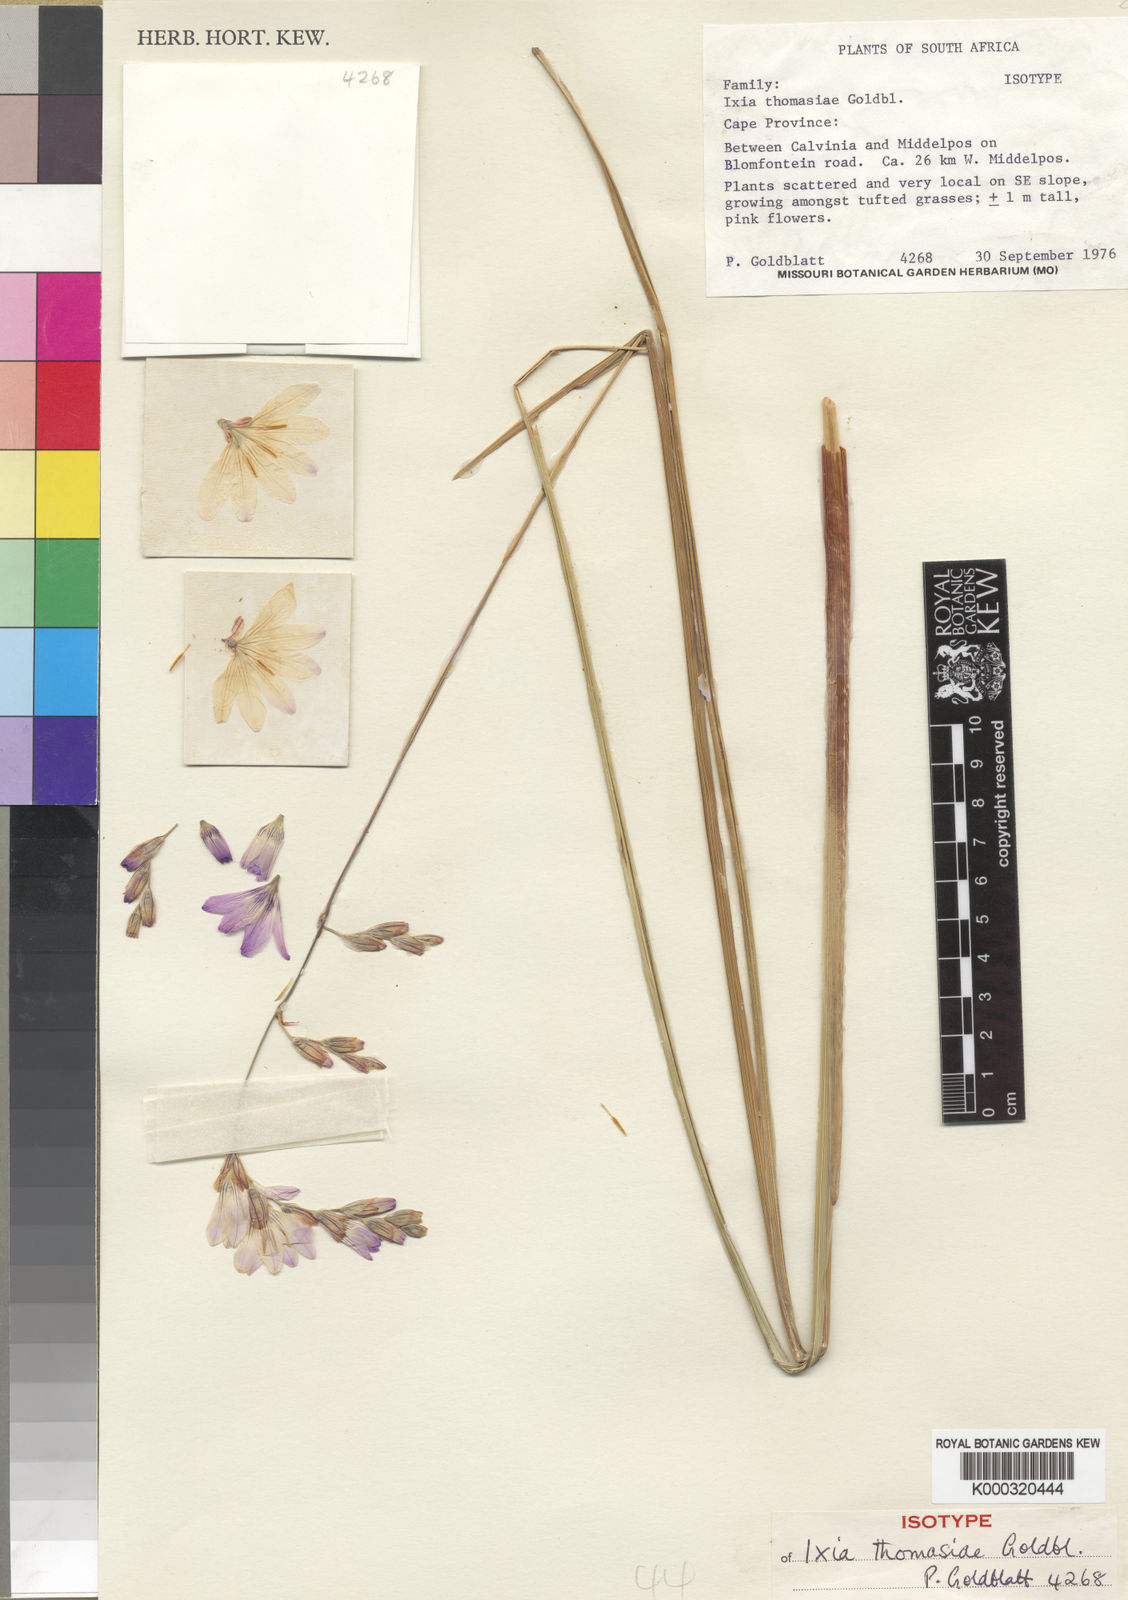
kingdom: Plantae
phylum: Tracheophyta
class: Liliopsida
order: Asparagales
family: Iridaceae
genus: Ixia
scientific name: Ixia thomasiae
